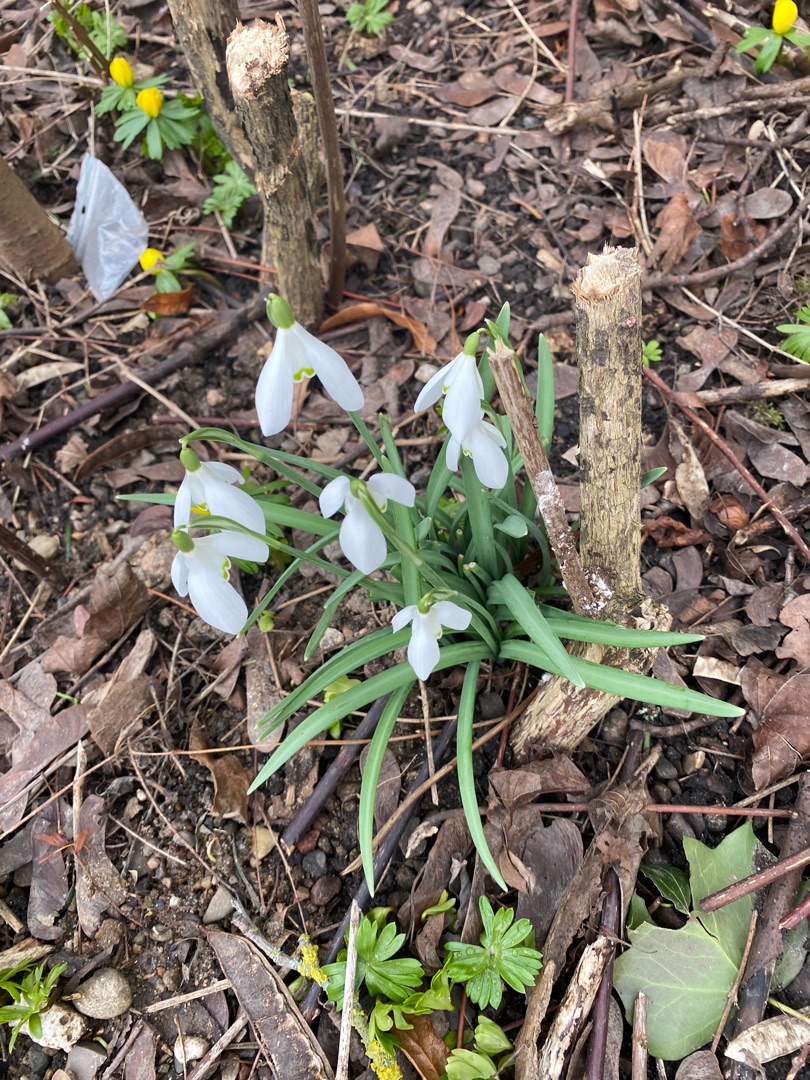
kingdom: Plantae
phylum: Tracheophyta
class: Liliopsida
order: Asparagales
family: Amaryllidaceae
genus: Galanthus
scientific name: Galanthus nivalis
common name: Vintergæk
